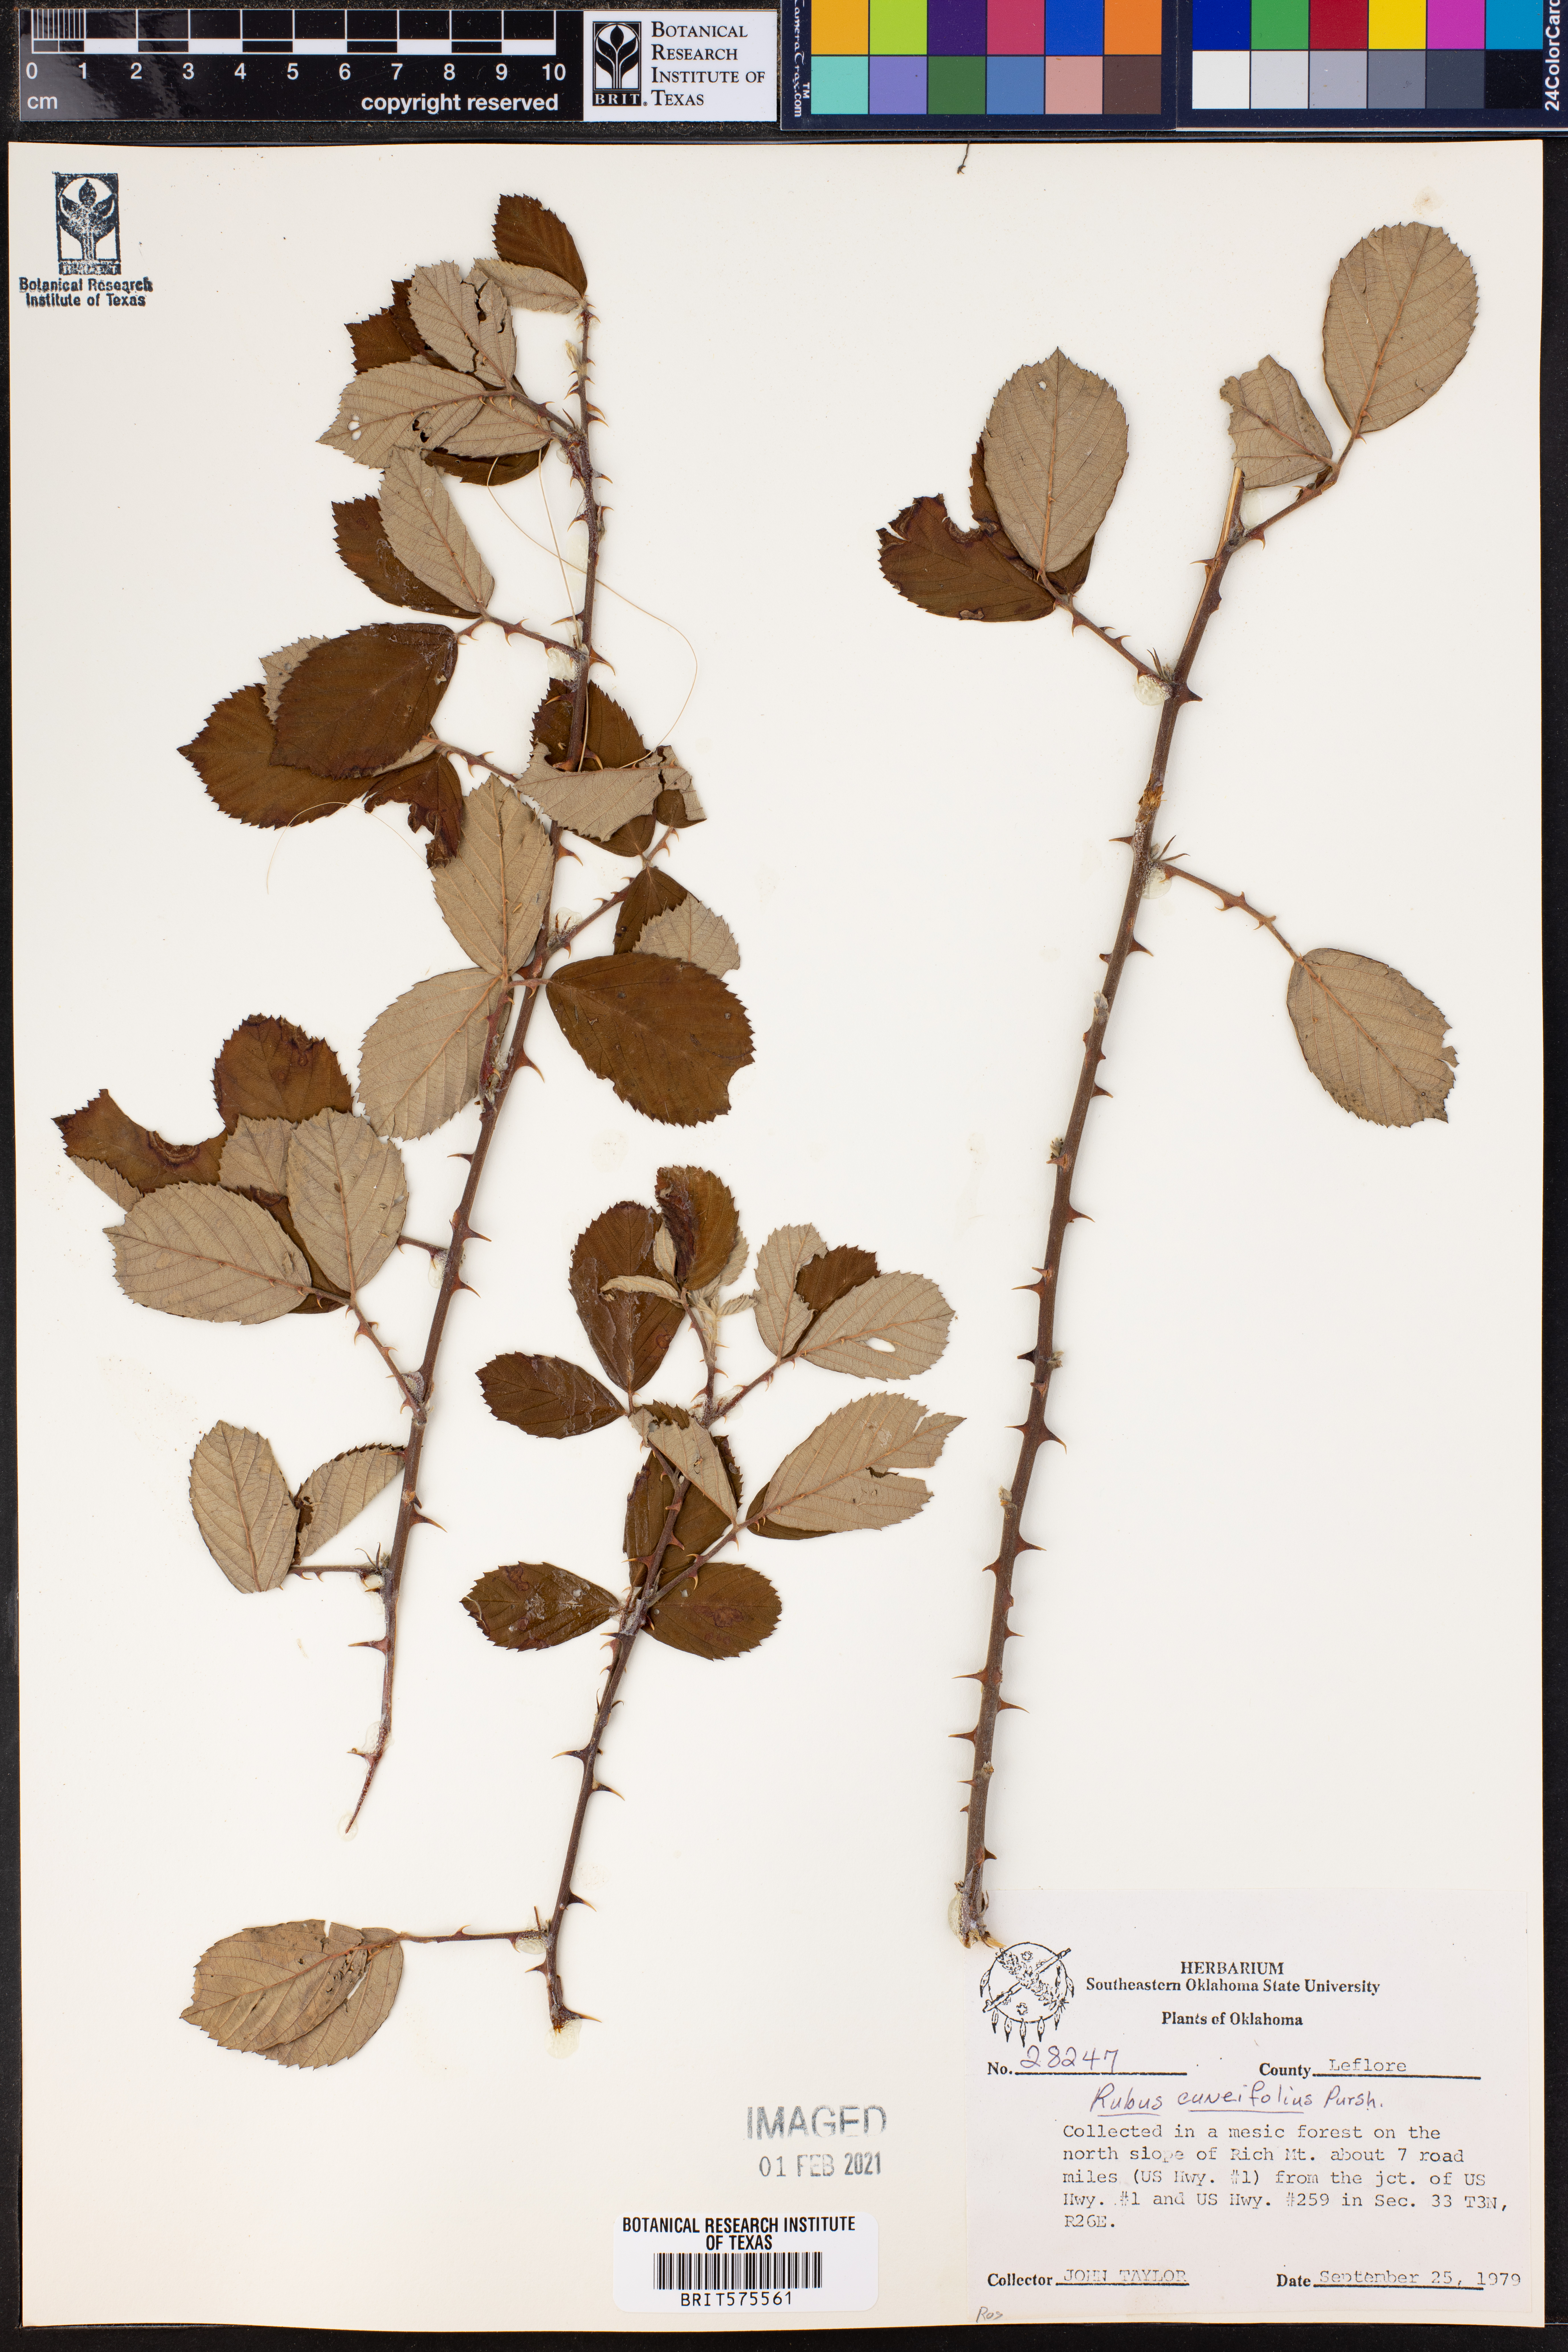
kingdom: Plantae
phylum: Tracheophyta
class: Magnoliopsida
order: Rosales
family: Rosaceae
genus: Rubus
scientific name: Rubus cuneifolius
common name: American bramble
